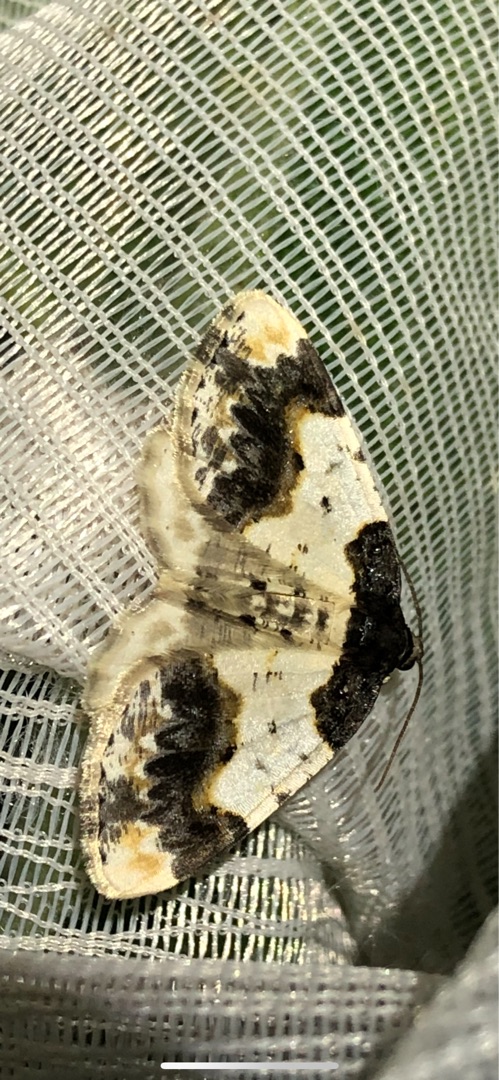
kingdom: Animalia
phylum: Arthropoda
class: Insecta
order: Lepidoptera
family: Geometridae
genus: Ligdia
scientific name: Ligdia adustata
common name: Benvedmåler
